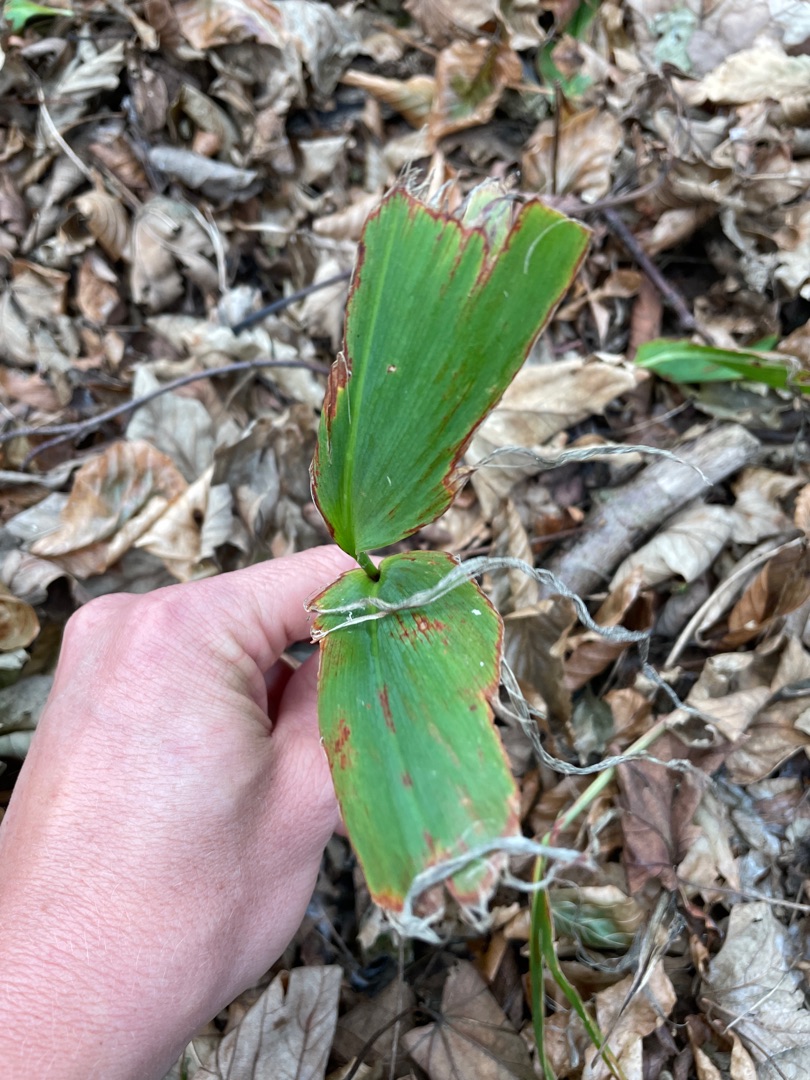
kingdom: Plantae
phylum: Tracheophyta
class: Liliopsida
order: Asparagales
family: Asparagaceae
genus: Convallaria
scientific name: Convallaria majalis
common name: Liljekonval
